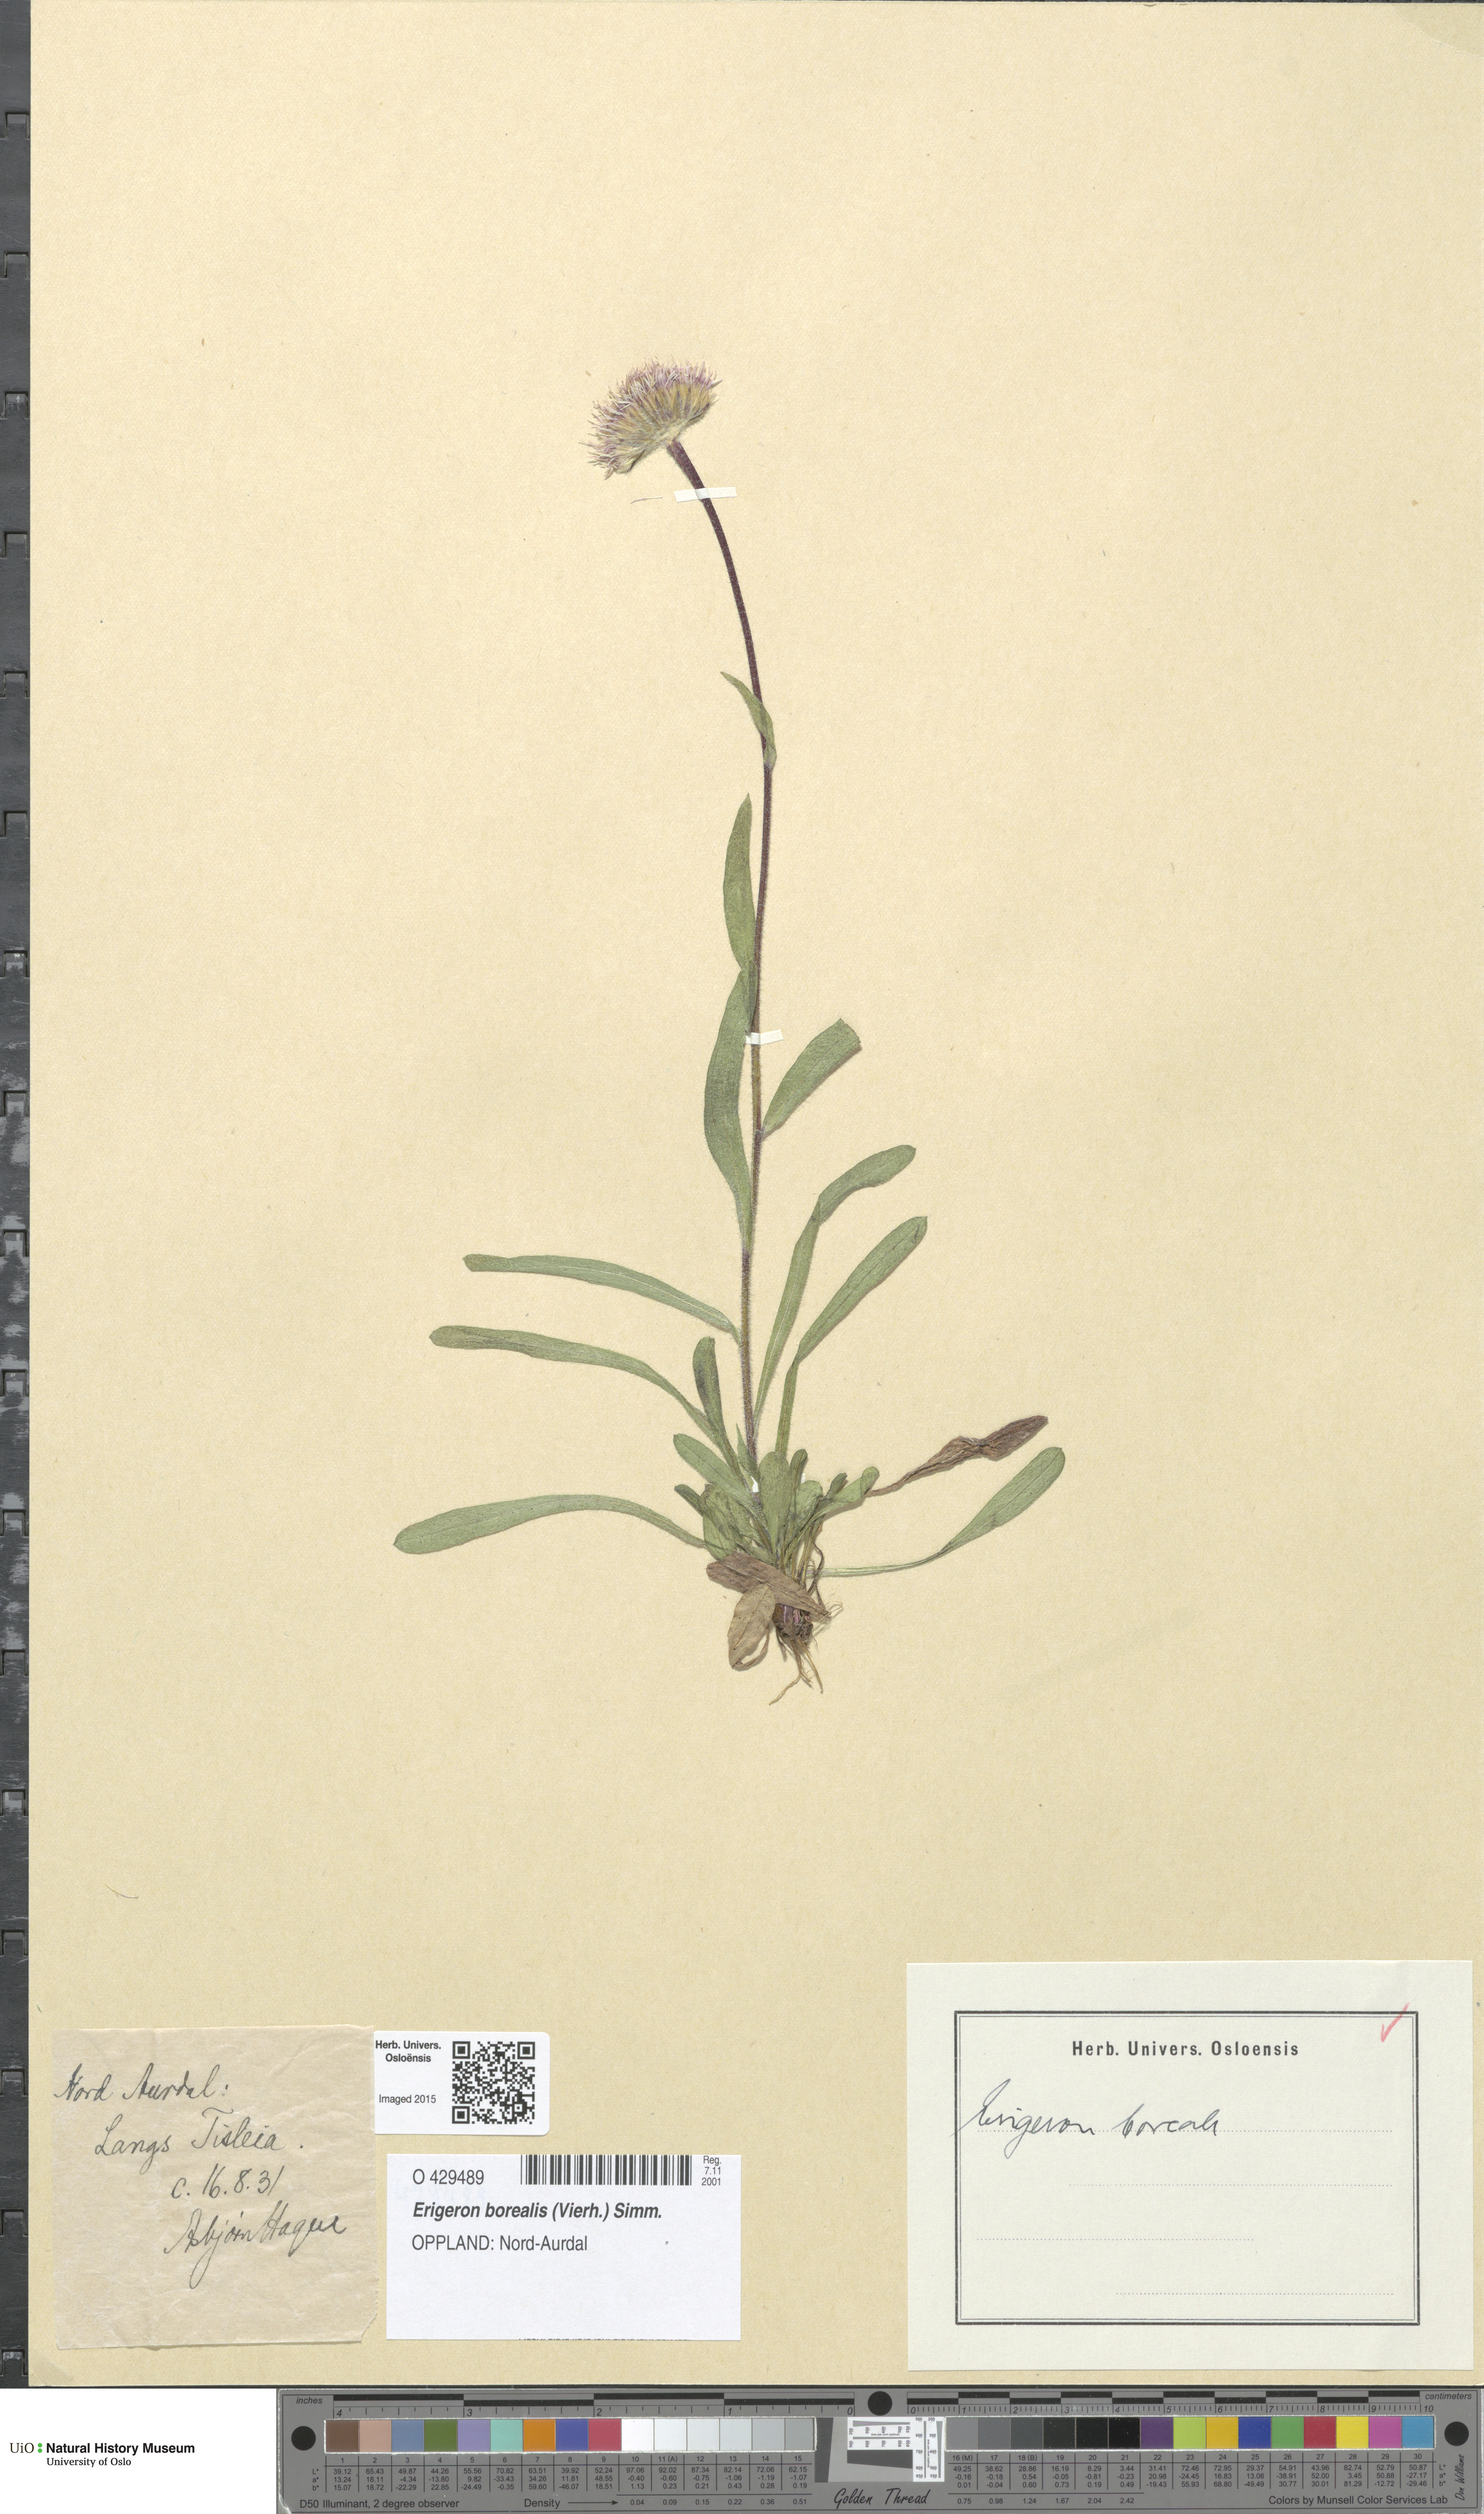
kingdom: Plantae
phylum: Tracheophyta
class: Magnoliopsida
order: Asterales
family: Asteraceae
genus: Erigeron
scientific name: Erigeron borealis
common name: Alpine fleabane
